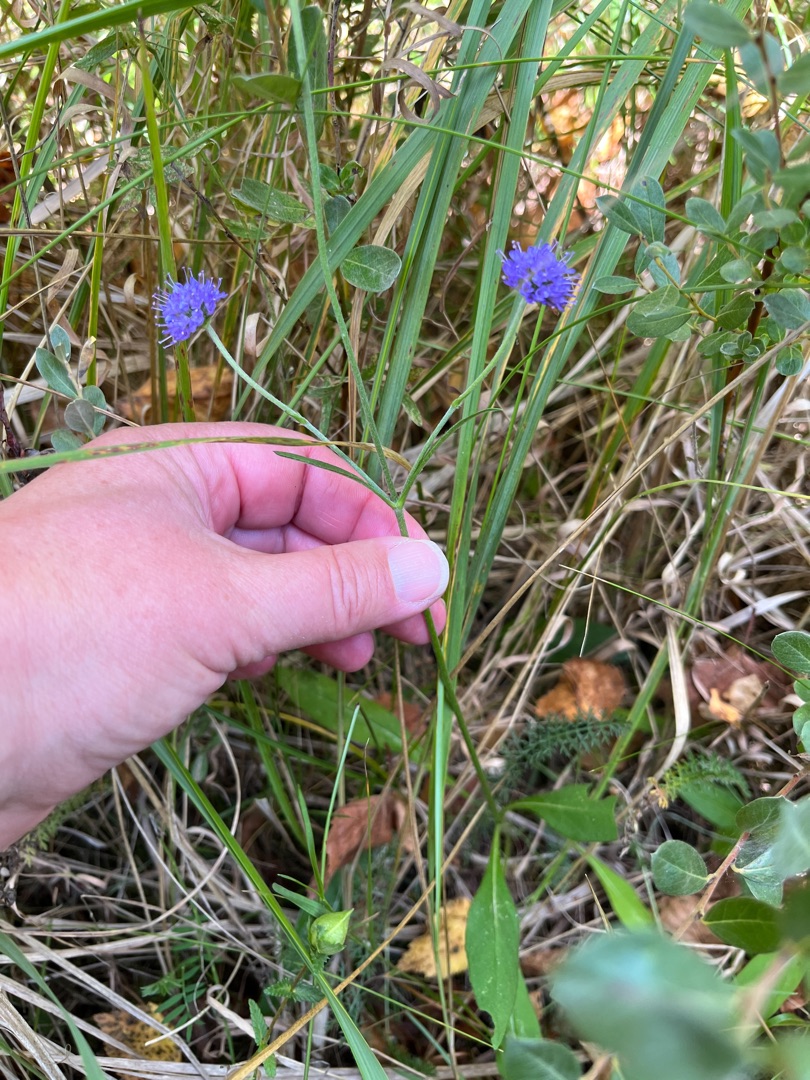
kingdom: Plantae
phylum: Tracheophyta
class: Magnoliopsida
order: Dipsacales
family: Caprifoliaceae
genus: Succisa
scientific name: Succisa pratensis
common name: Djævelsbid
